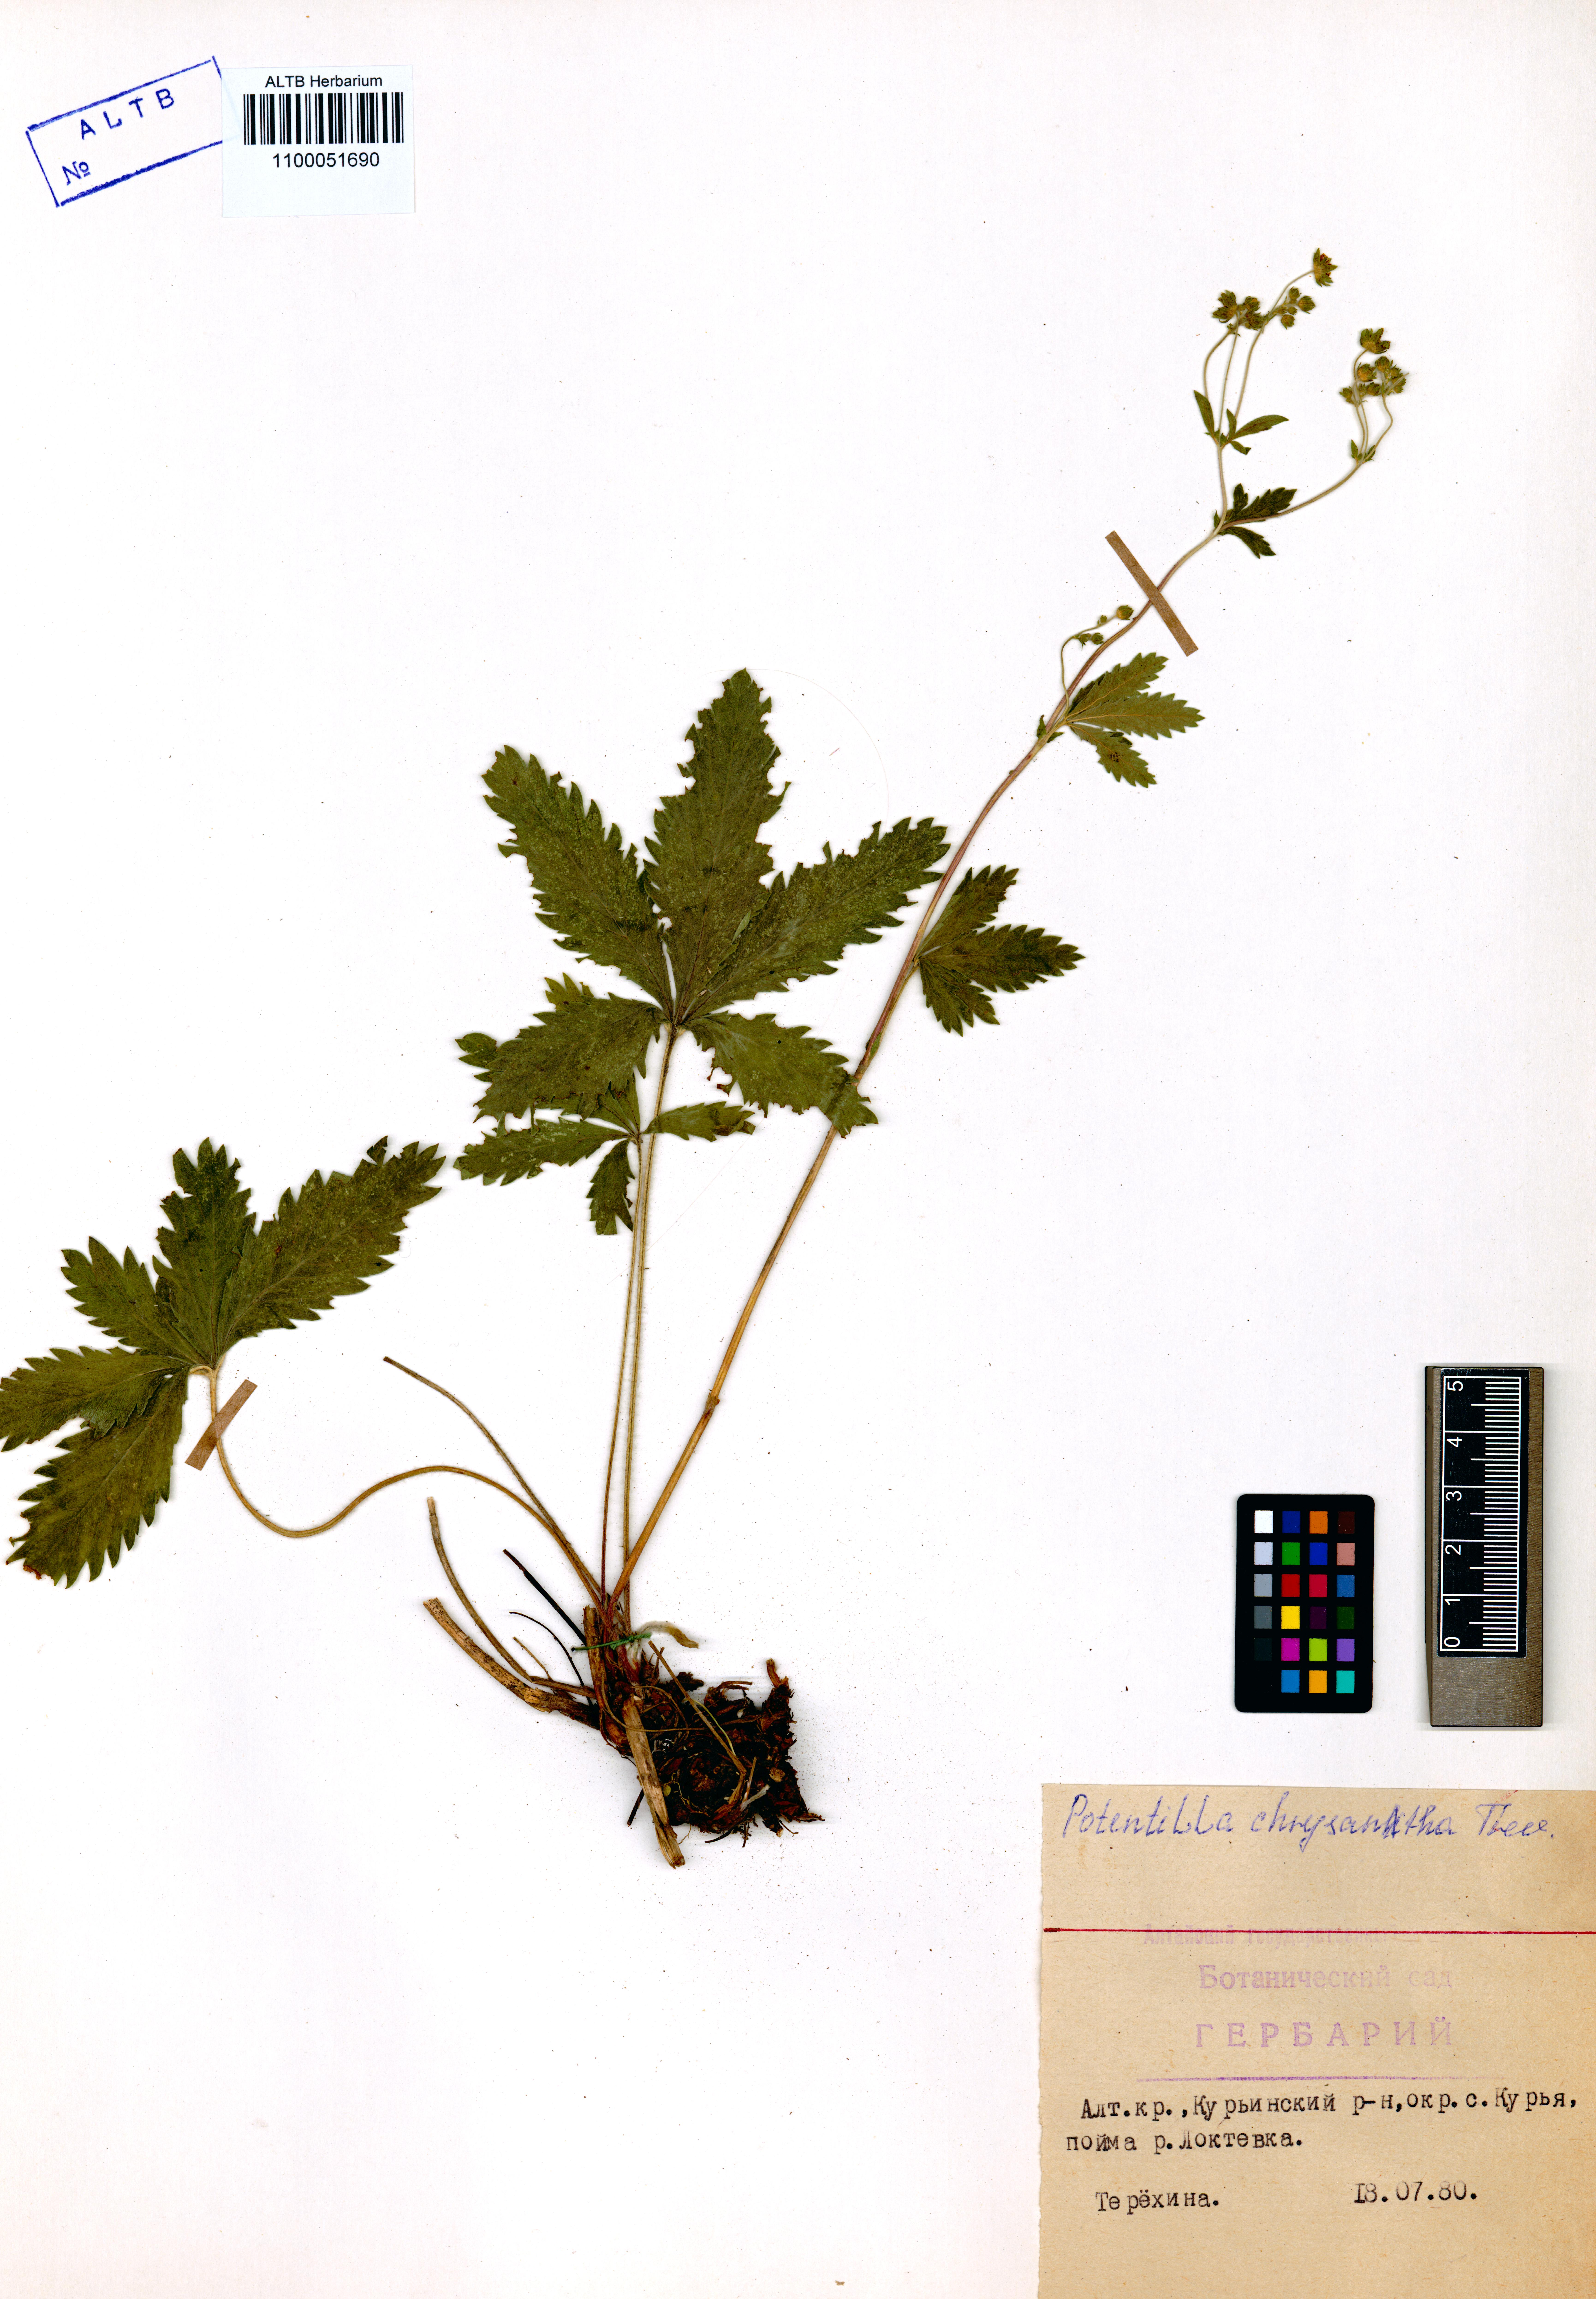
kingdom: Plantae
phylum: Tracheophyta
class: Magnoliopsida
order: Rosales
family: Rosaceae
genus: Potentilla
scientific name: Potentilla chrysantha
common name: Thuringian cinquefoil
